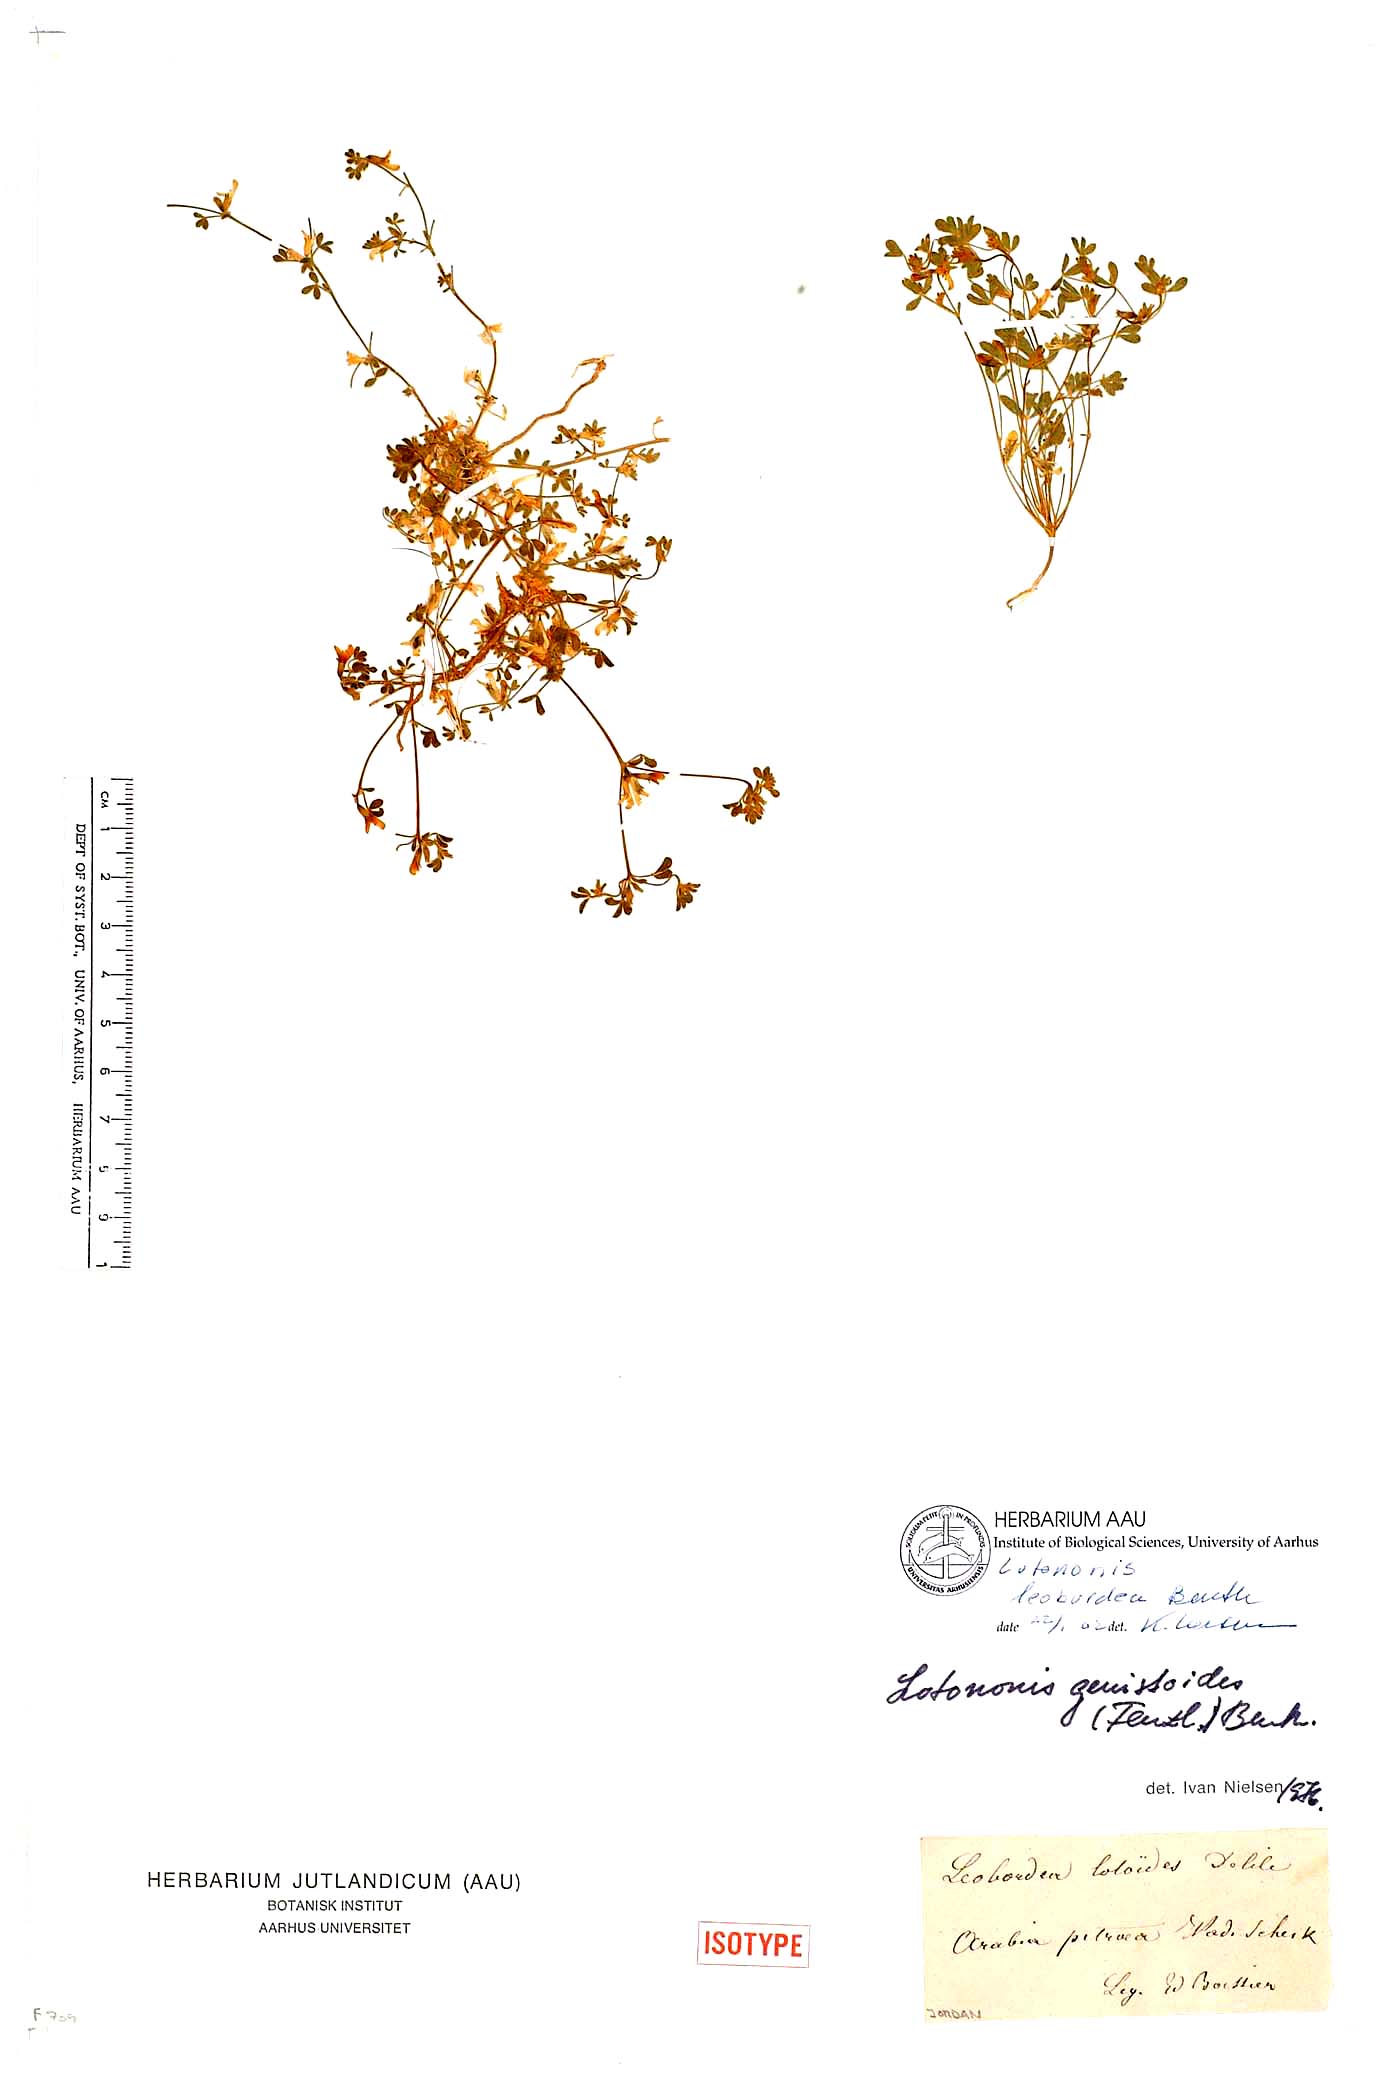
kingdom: Plantae
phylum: Tracheophyta
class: Magnoliopsida
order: Fabales
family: Fabaceae
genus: Leobordea
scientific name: Leobordea platycarpa
